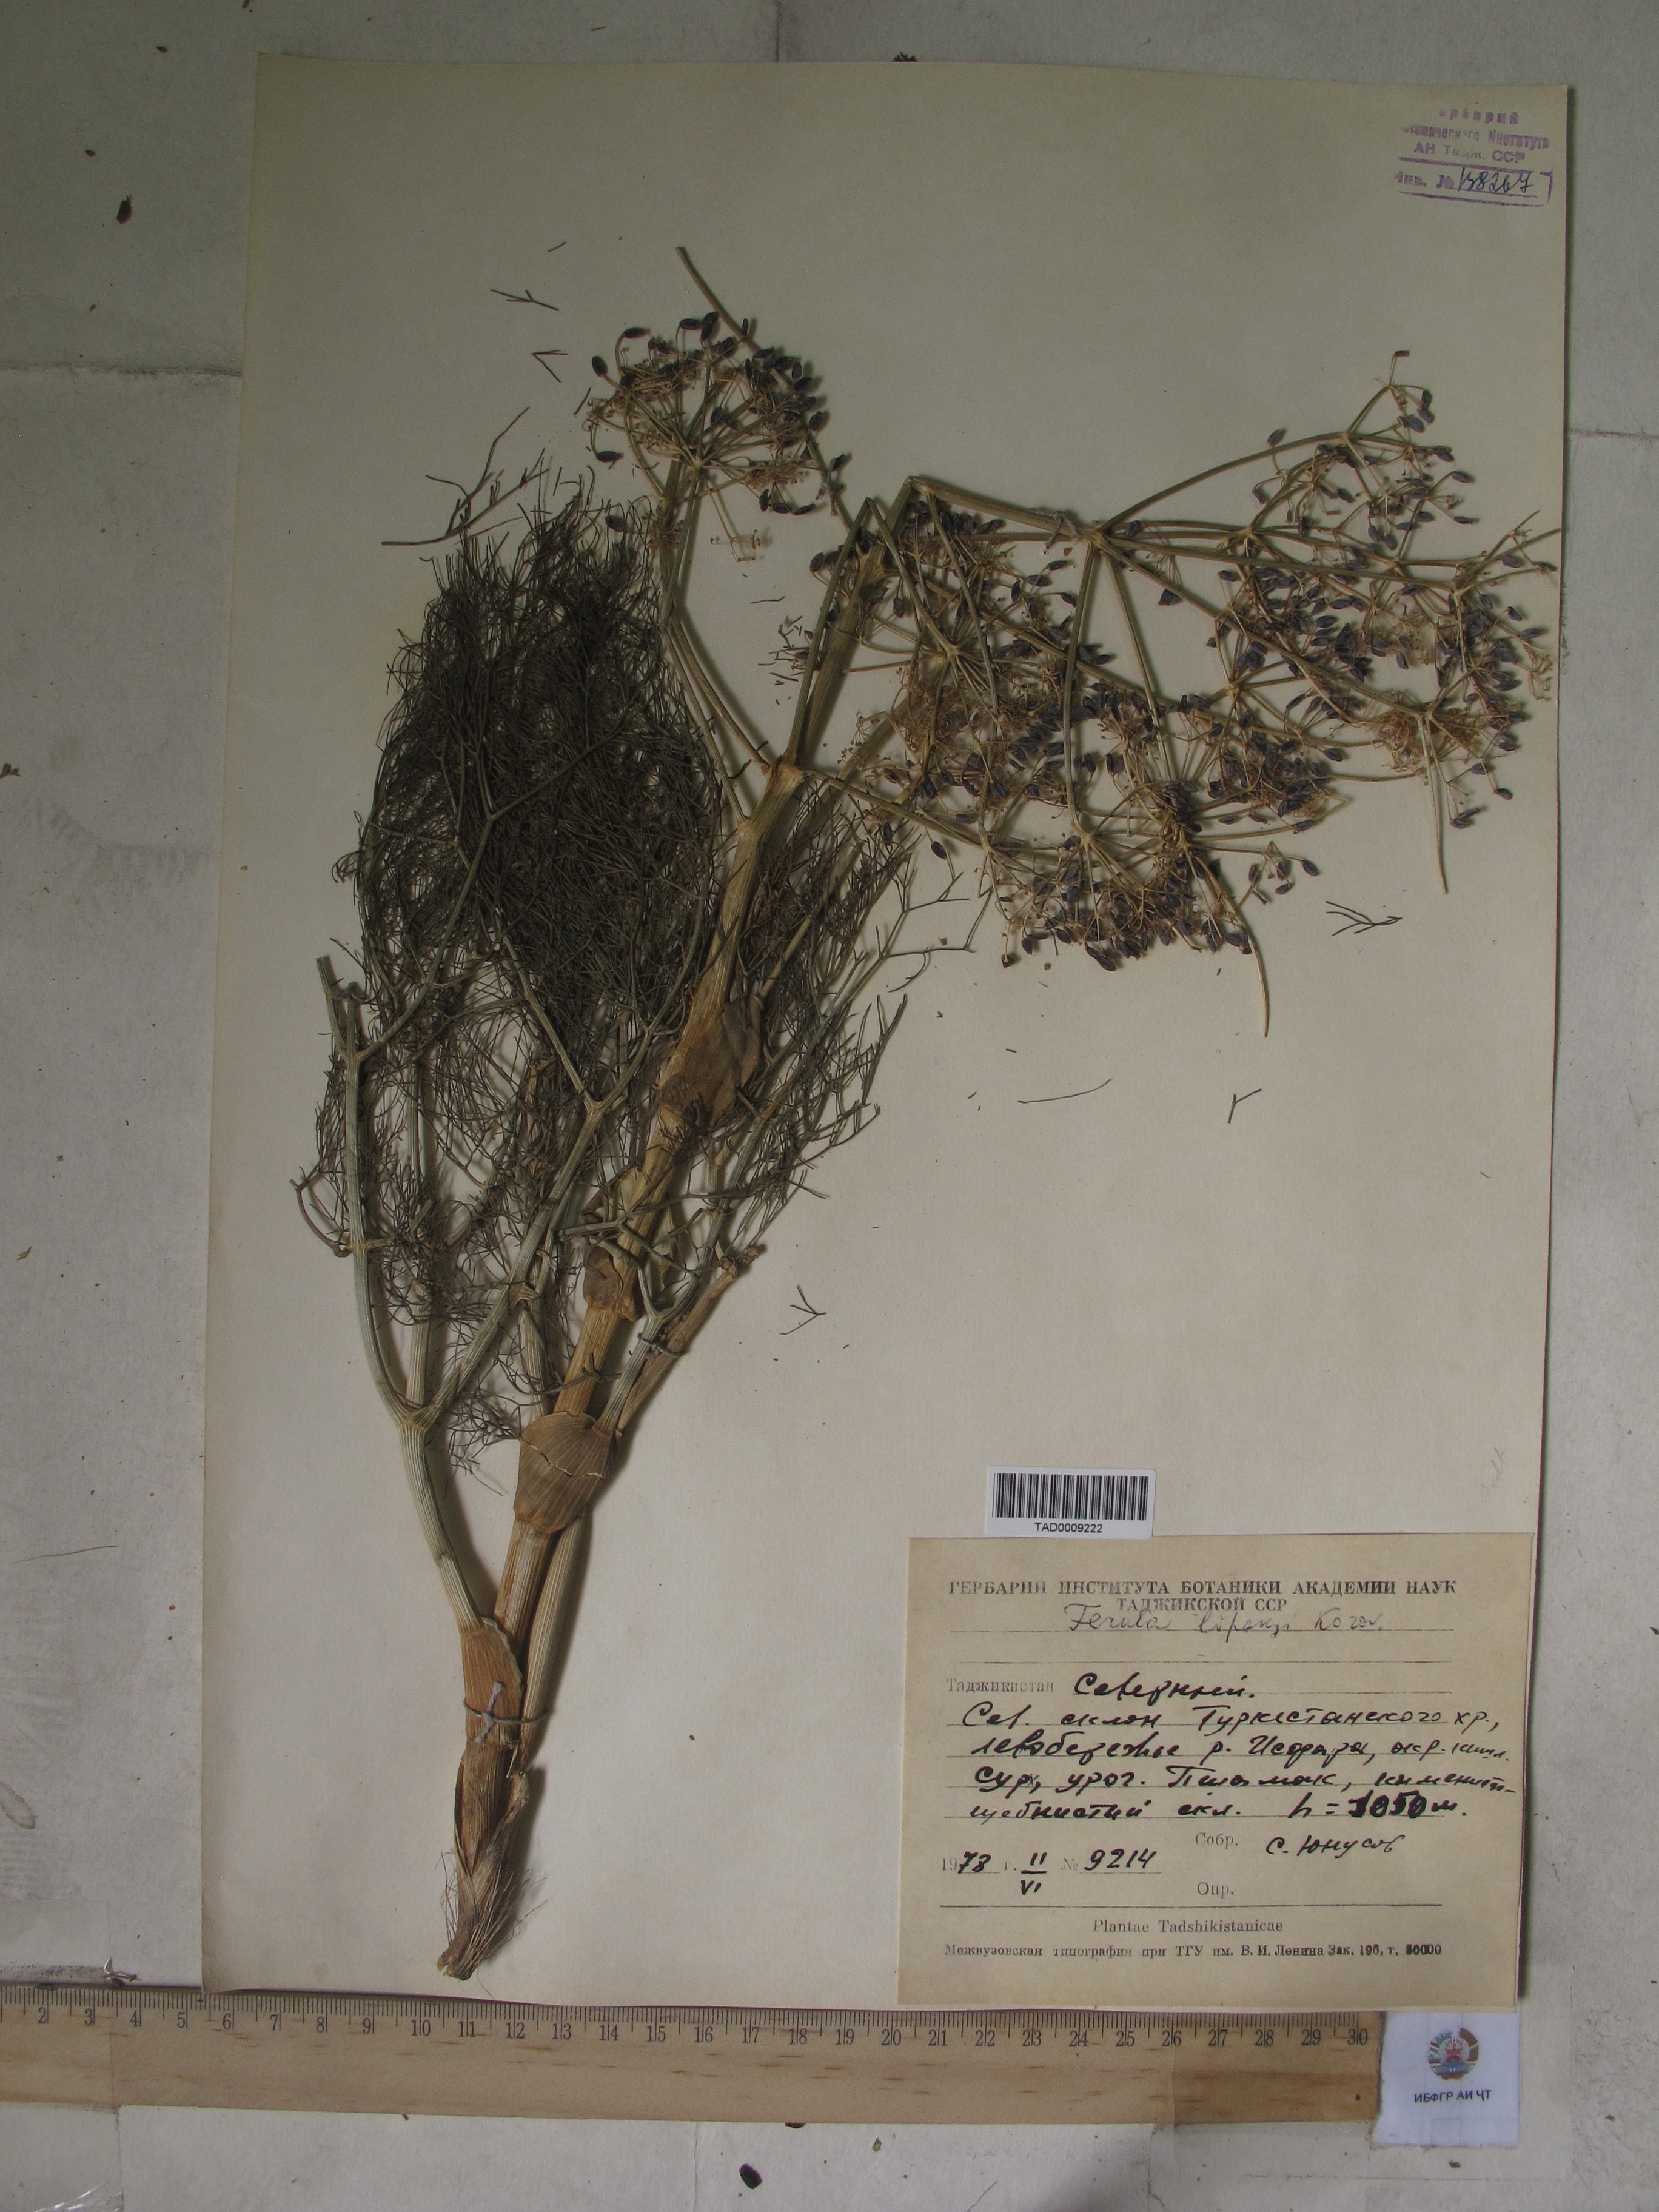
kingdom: Plantae
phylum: Tracheophyta
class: Magnoliopsida
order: Apiales
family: Apiaceae
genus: Ferula
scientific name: Ferula
